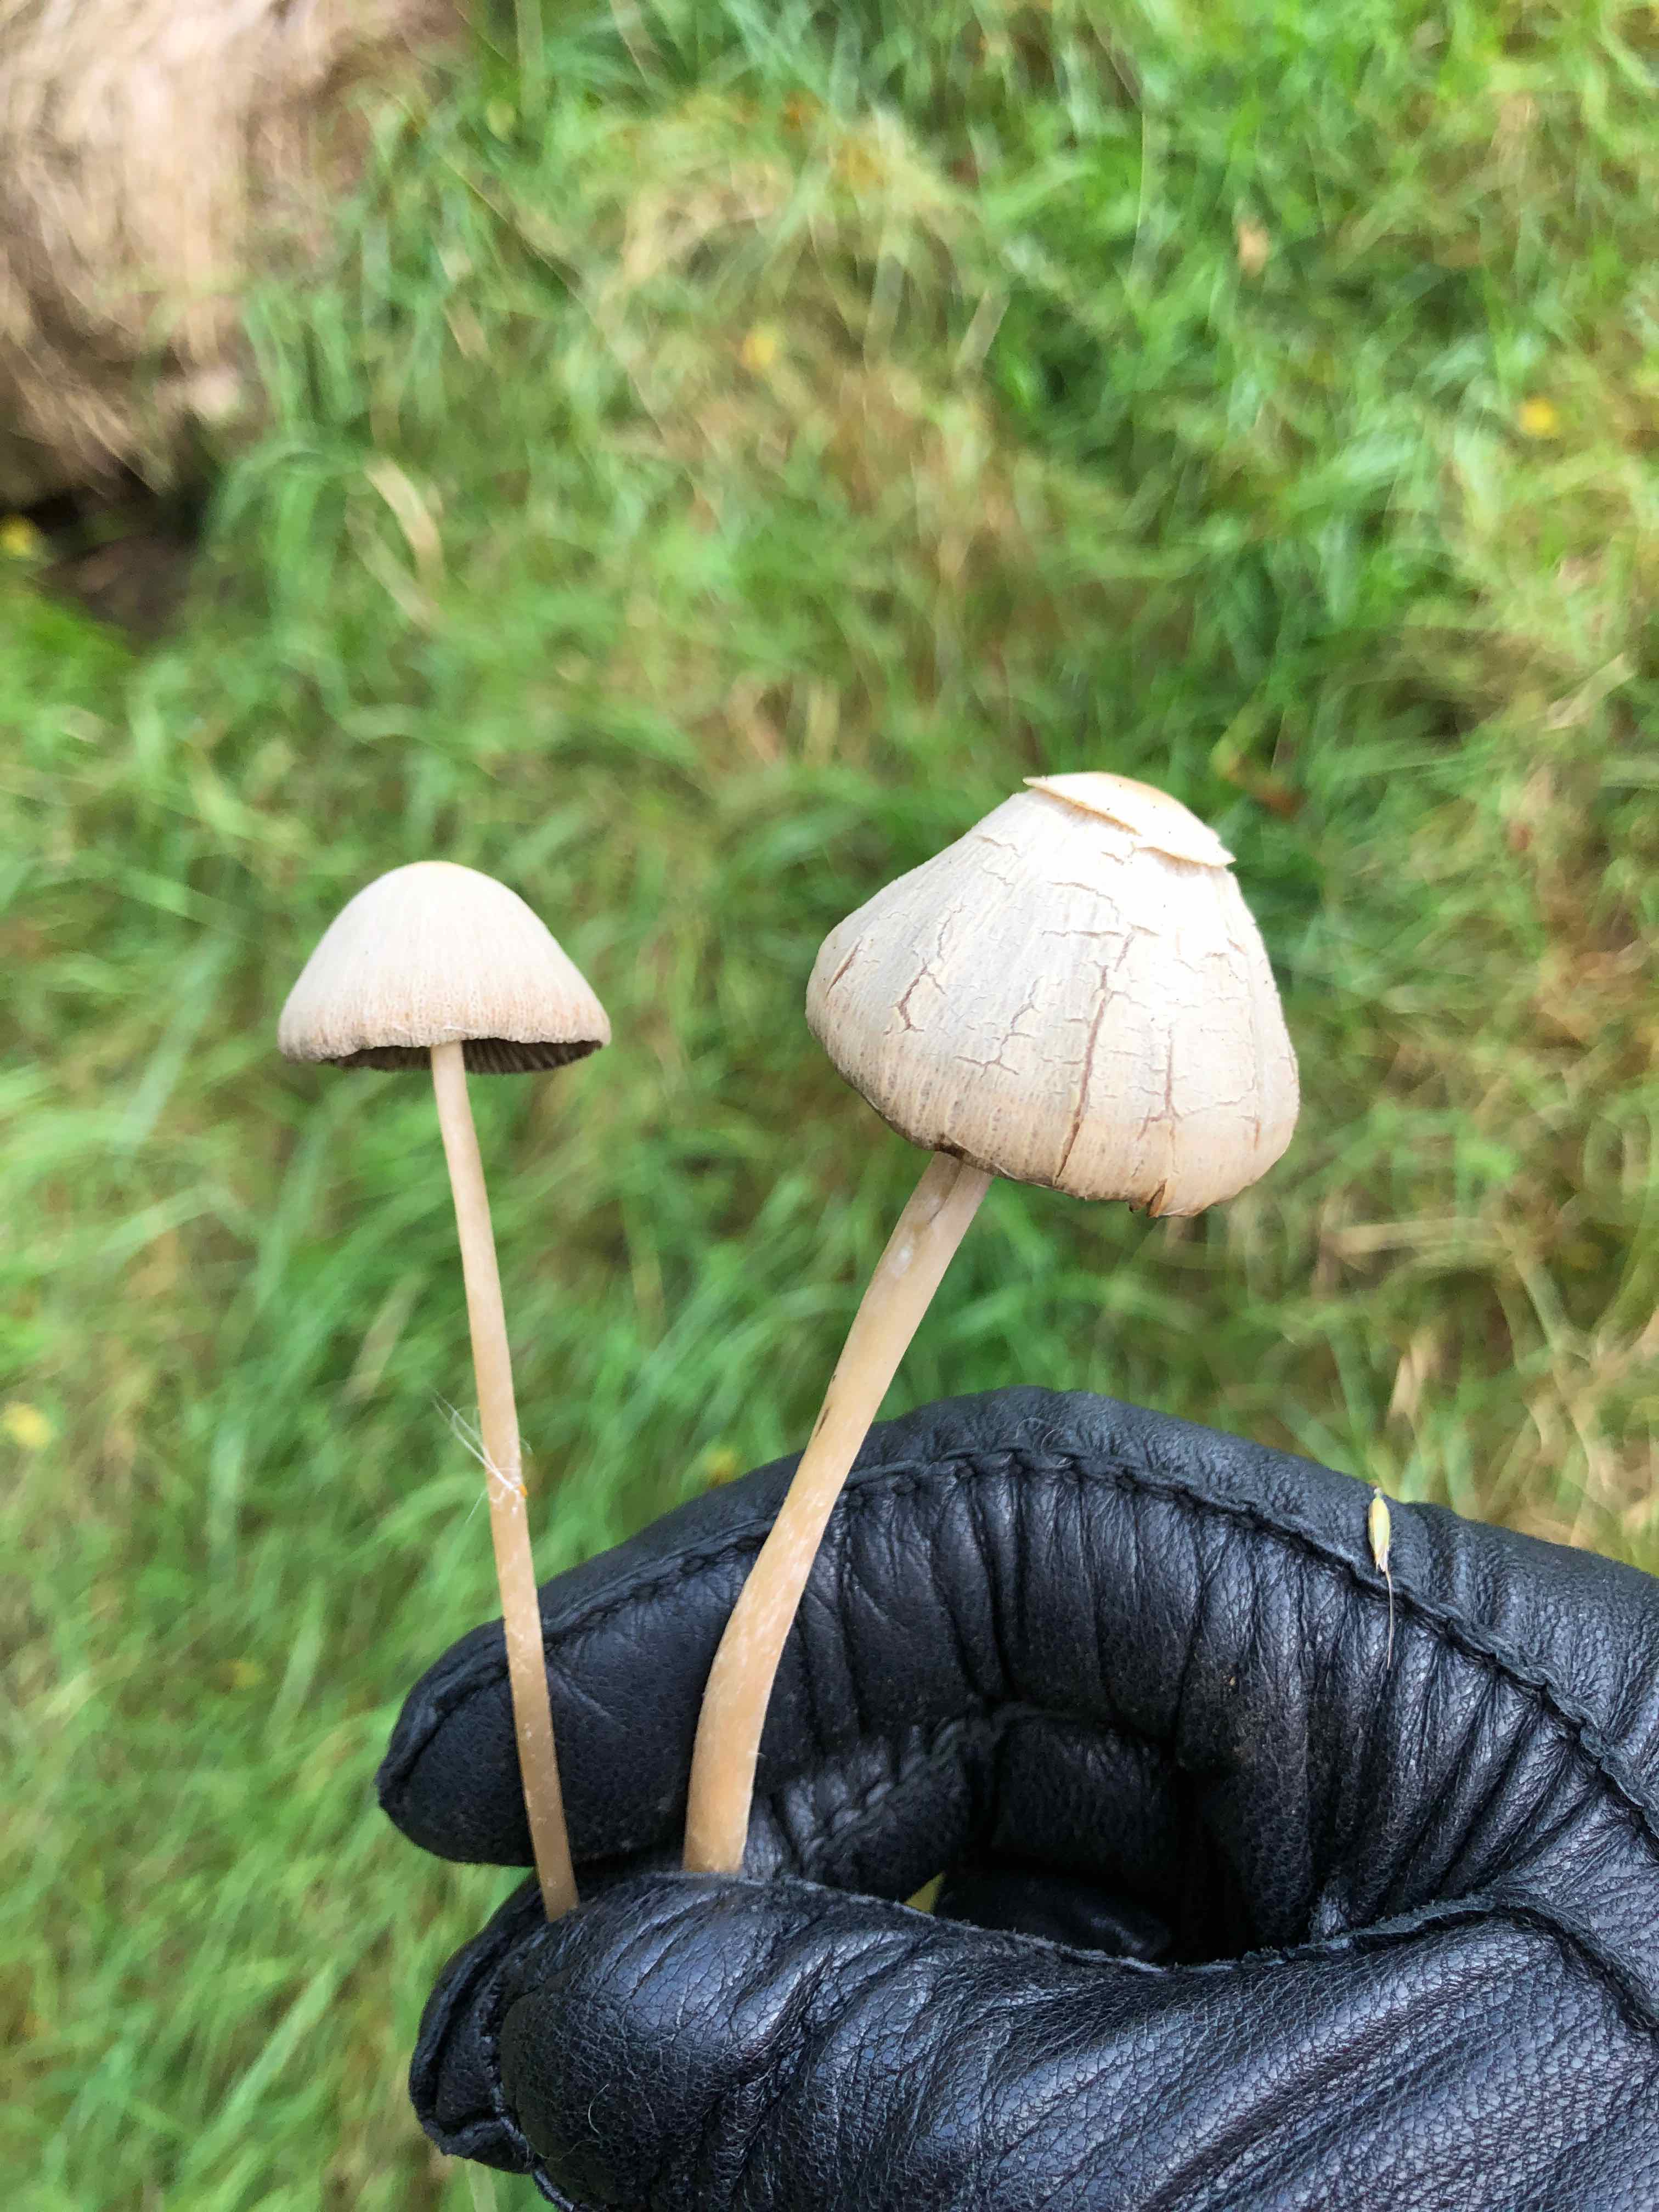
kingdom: Fungi
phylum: Basidiomycota
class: Agaricomycetes
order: Agaricales
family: Psathyrellaceae
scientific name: Psathyrellaceae
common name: mørkhatfamilien
